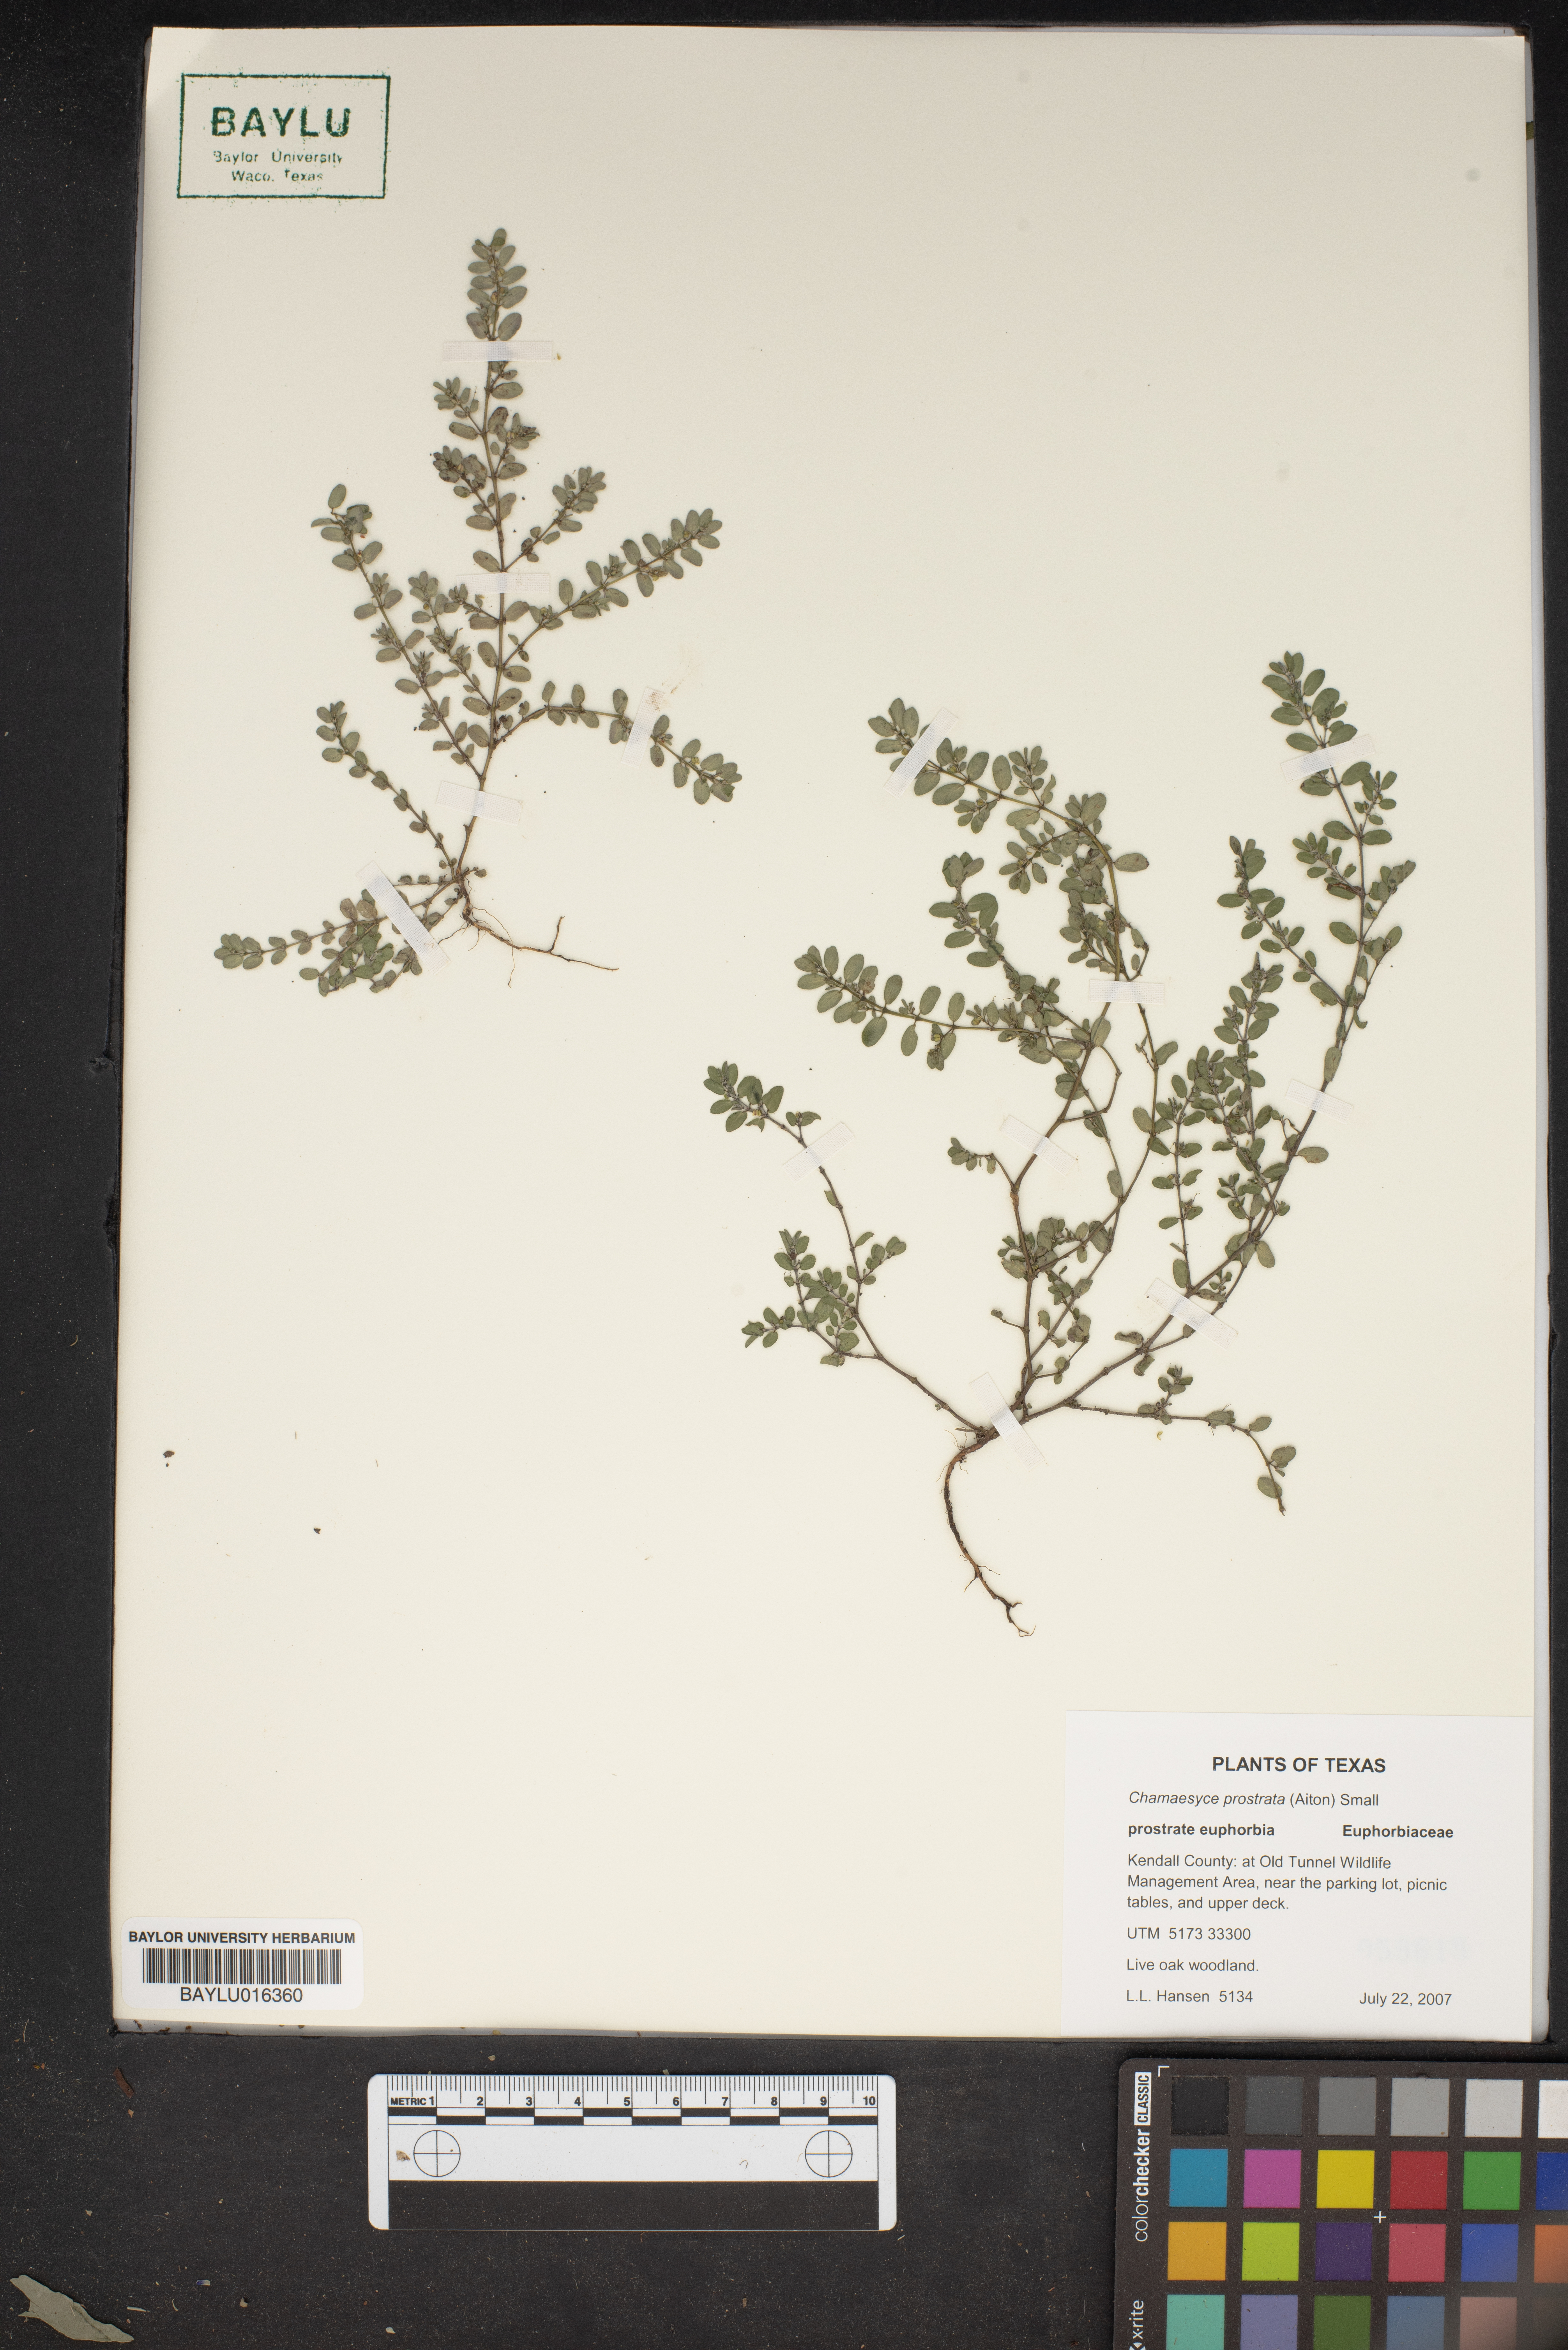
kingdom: Plantae
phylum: Tracheophyta
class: Magnoliopsida
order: Malpighiales
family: Euphorbiaceae
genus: Euphorbia
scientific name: Euphorbia prostrata
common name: Prostrate sandmat
